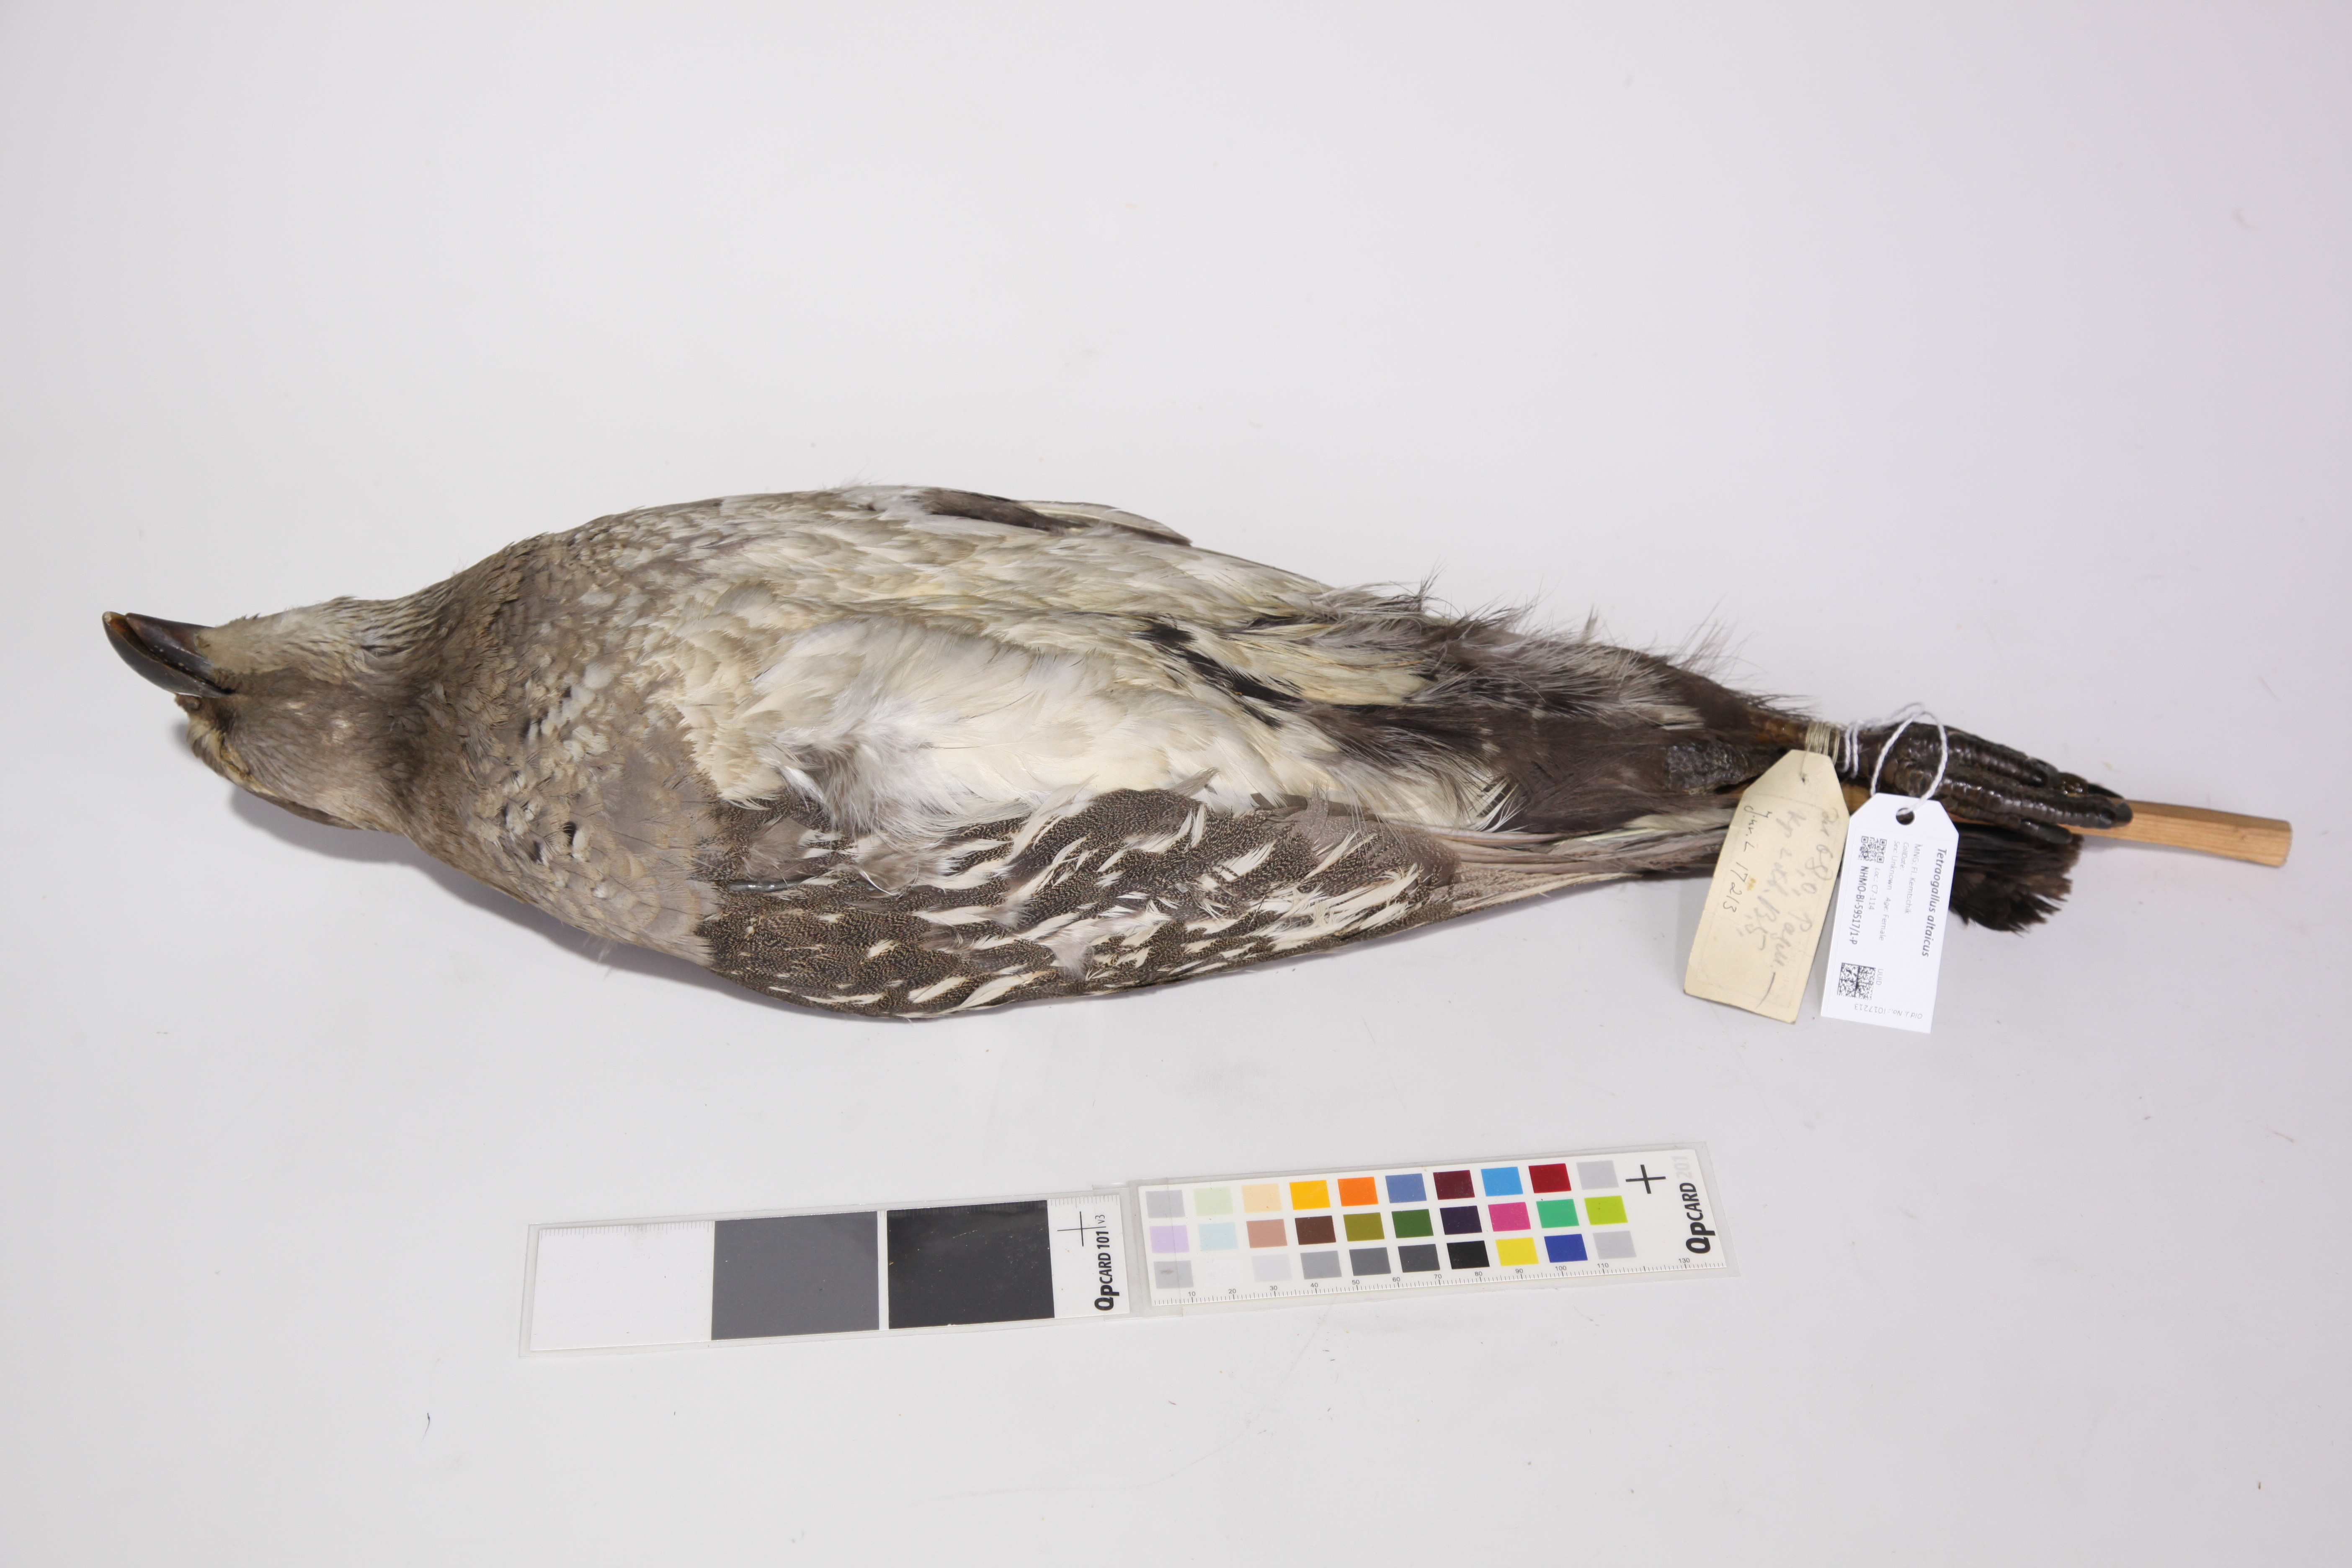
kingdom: Animalia
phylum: Chordata
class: Aves
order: Galliformes
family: Phasianidae
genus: Tetraogallus
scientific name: Tetraogallus altaicus
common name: Altai snowcock
